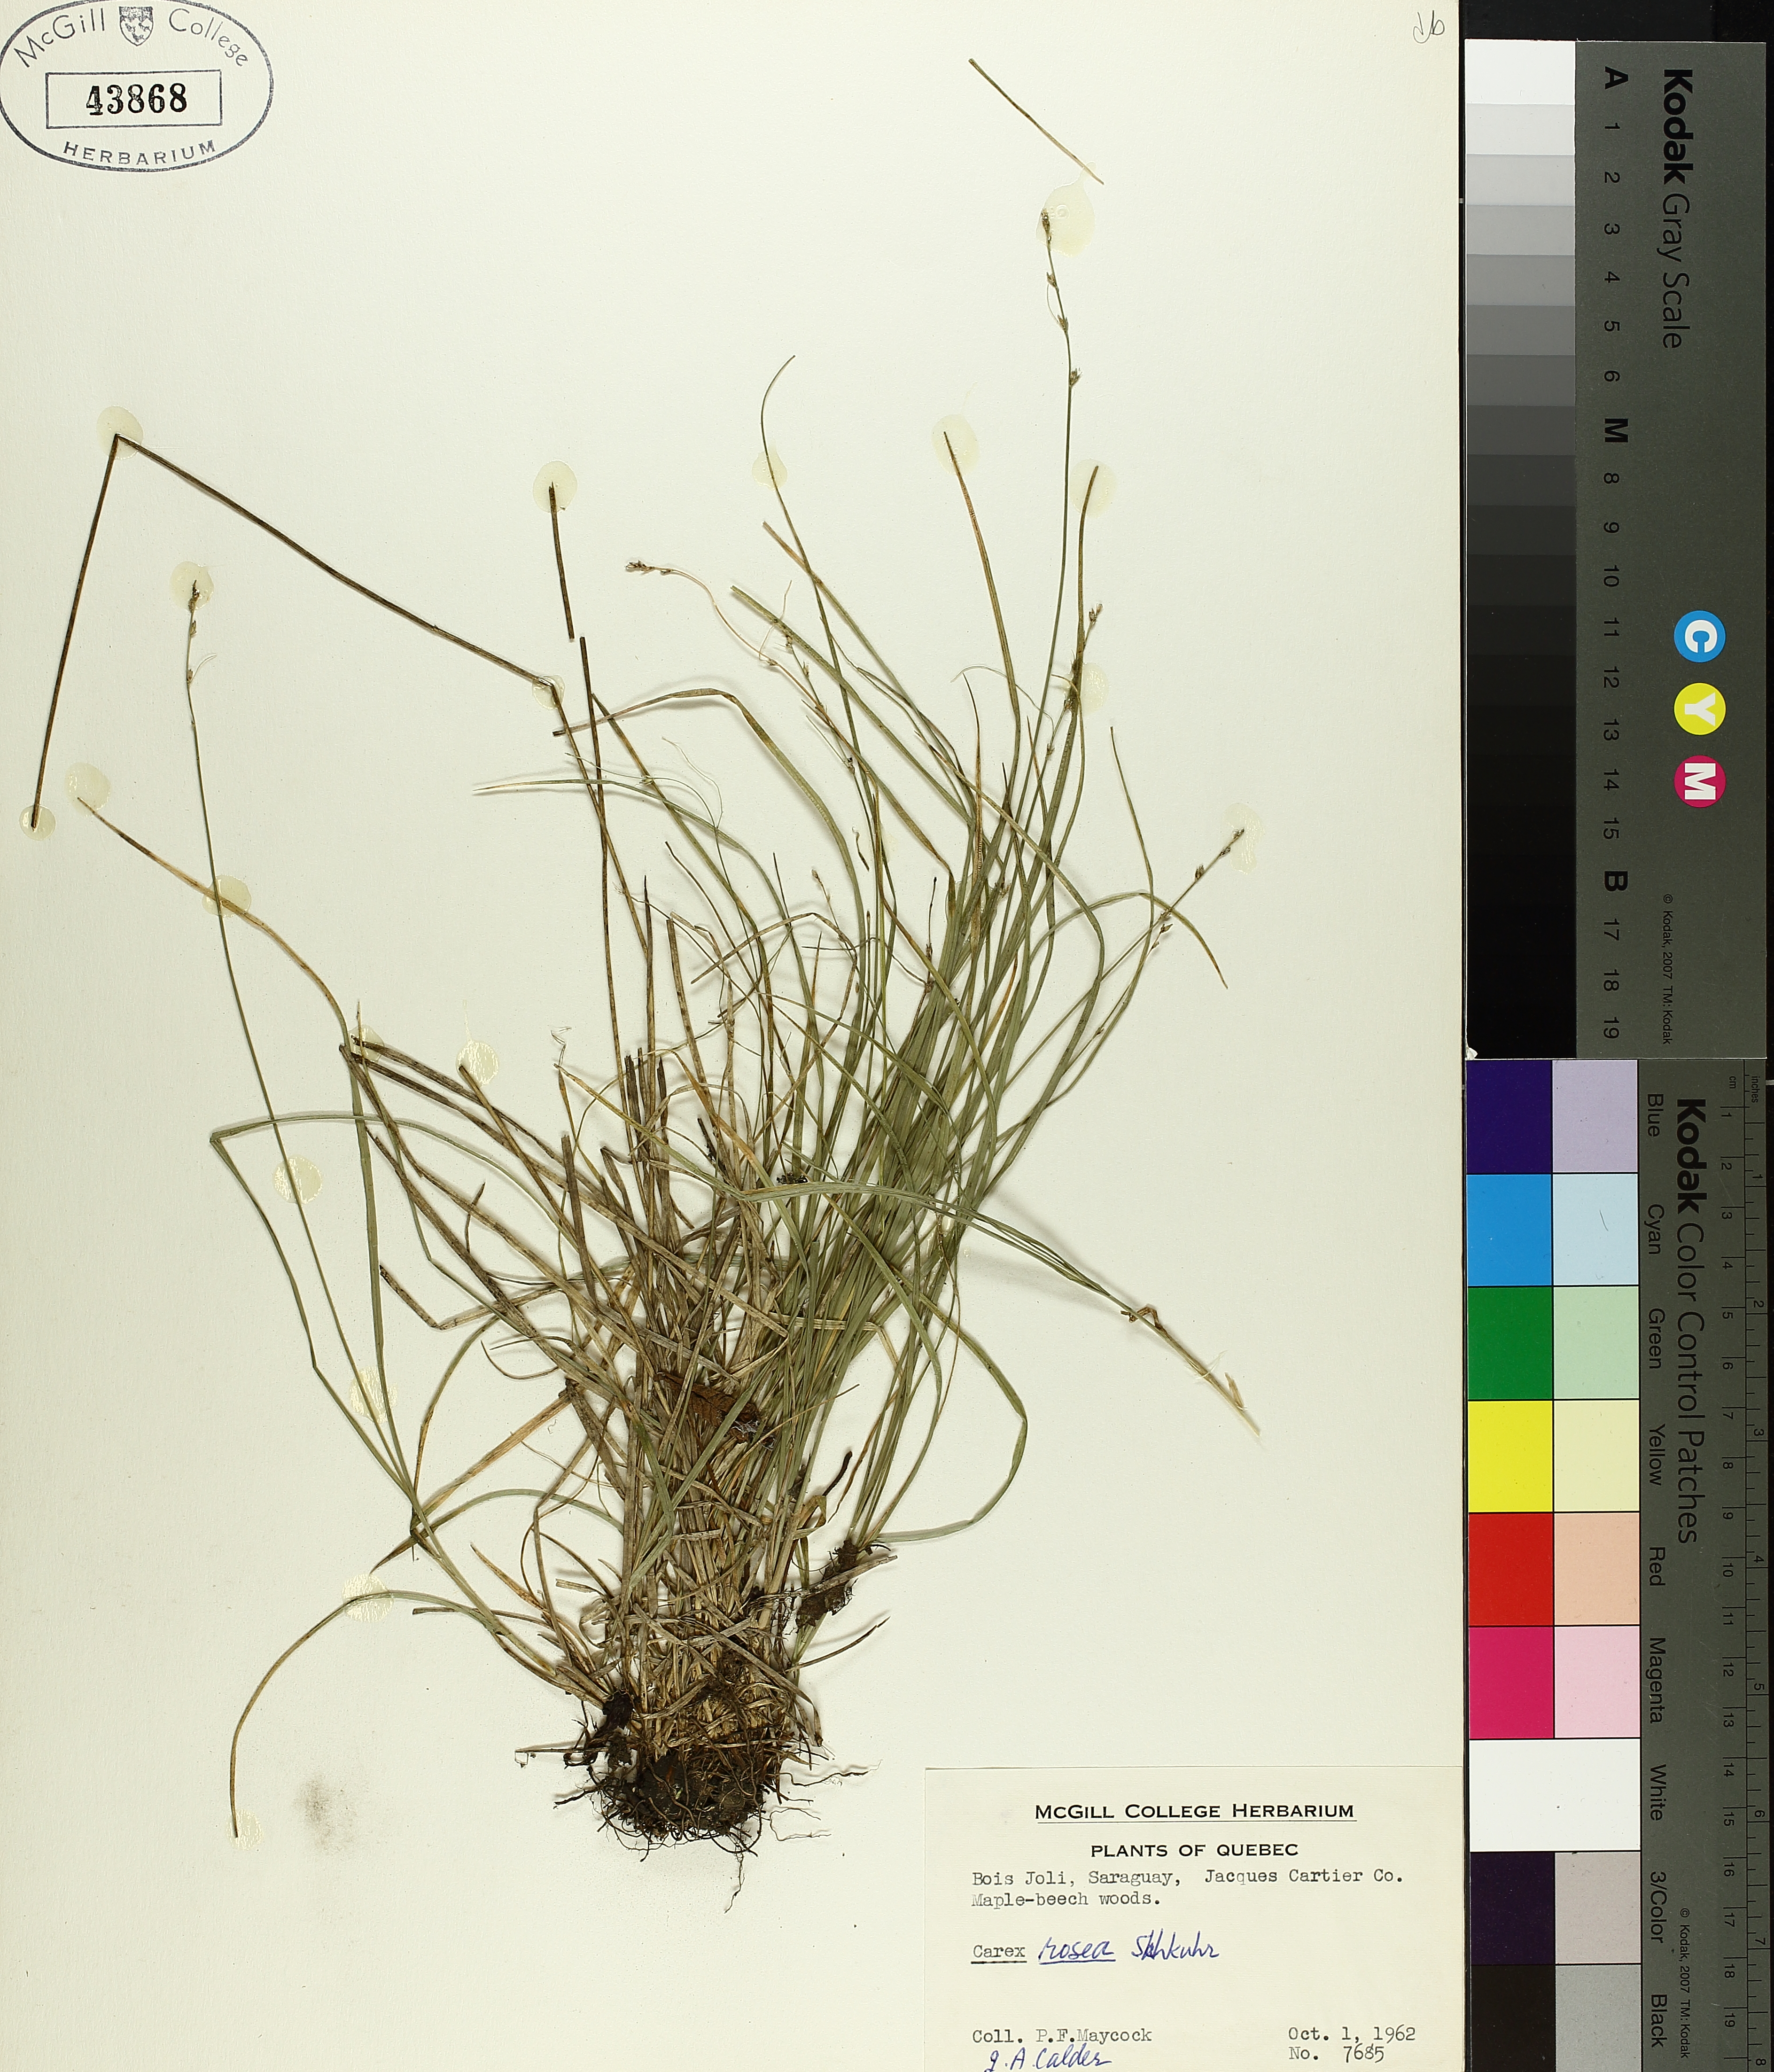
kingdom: Plantae
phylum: Tracheophyta
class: Liliopsida
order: Poales
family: Cyperaceae
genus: Carex
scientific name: Carex rosea
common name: Curly-styled wood sedge
